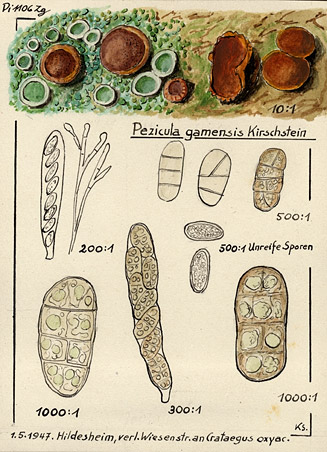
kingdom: Plantae
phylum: Tracheophyta
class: Magnoliopsida
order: Rosales
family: Rosaceae
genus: Crataegus
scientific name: Crataegus
